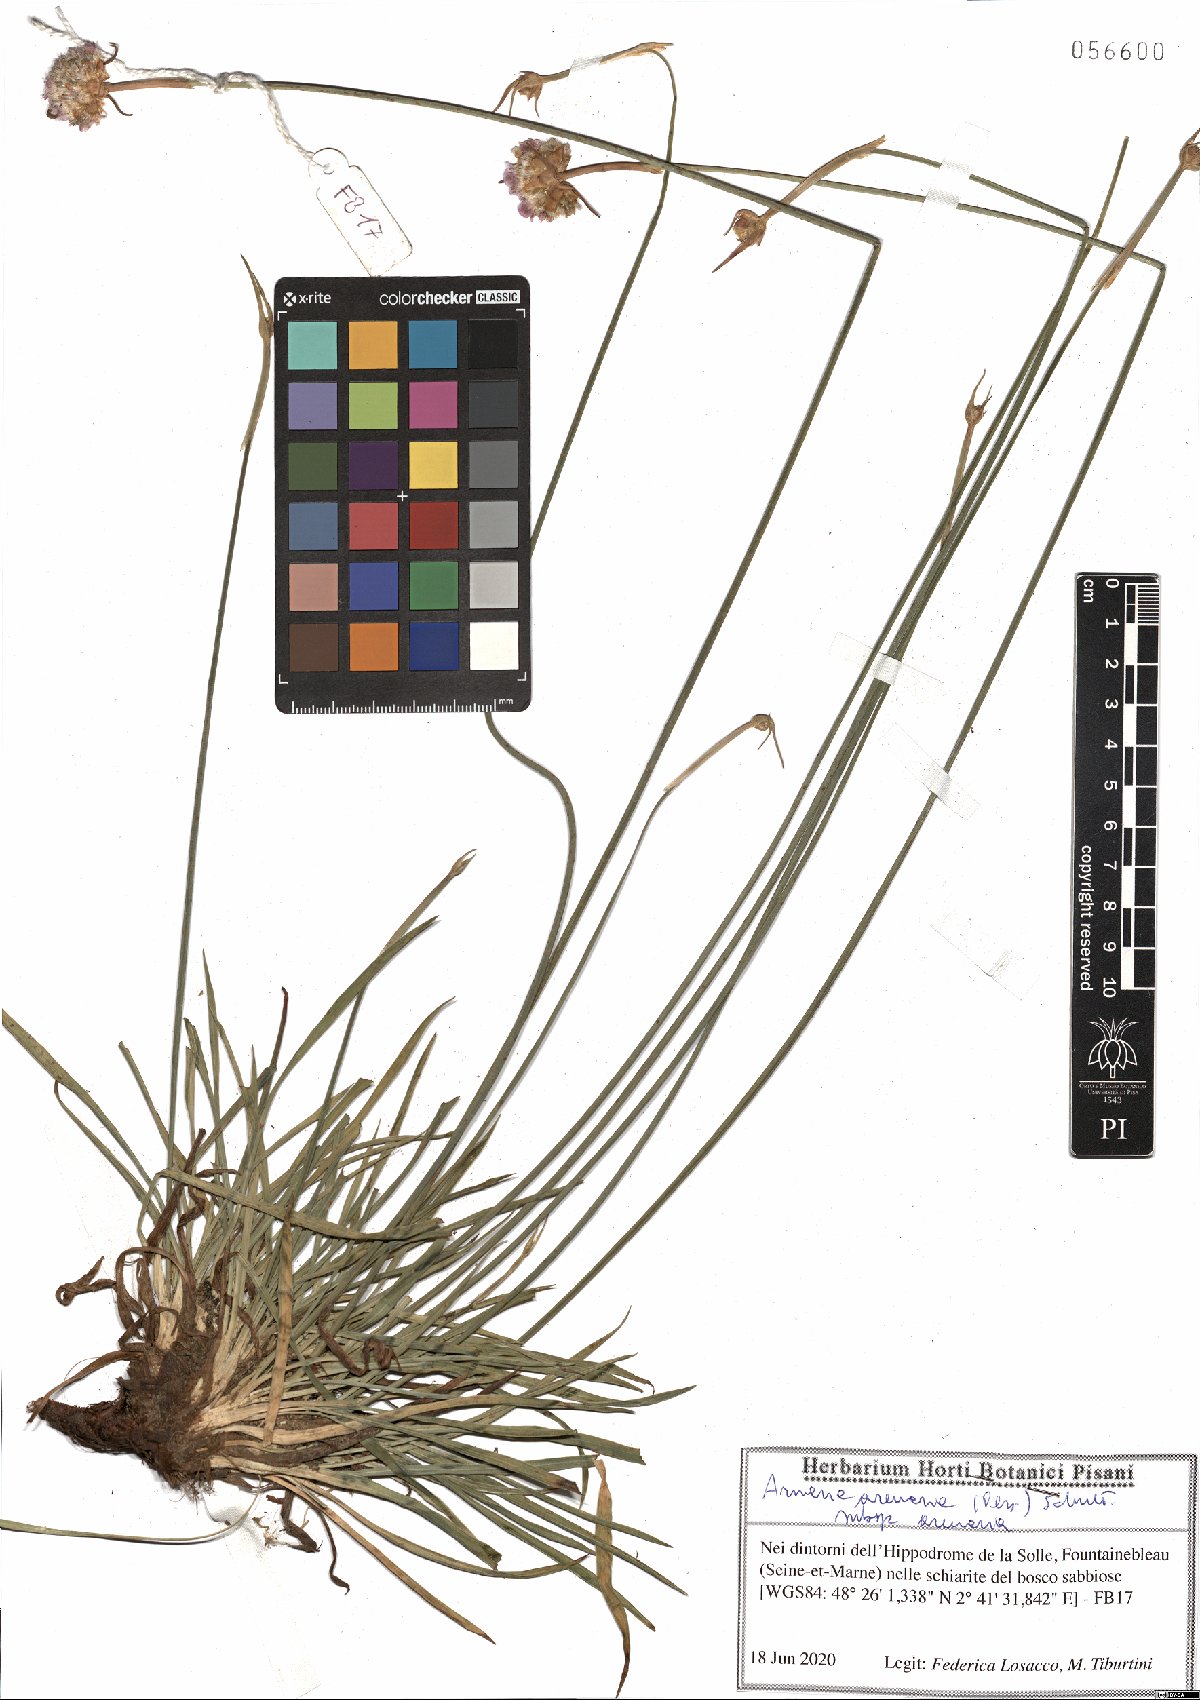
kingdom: Plantae
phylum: Tracheophyta
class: Magnoliopsida
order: Caryophyllales
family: Plumbaginaceae
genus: Armeria
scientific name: Armeria arenaria
